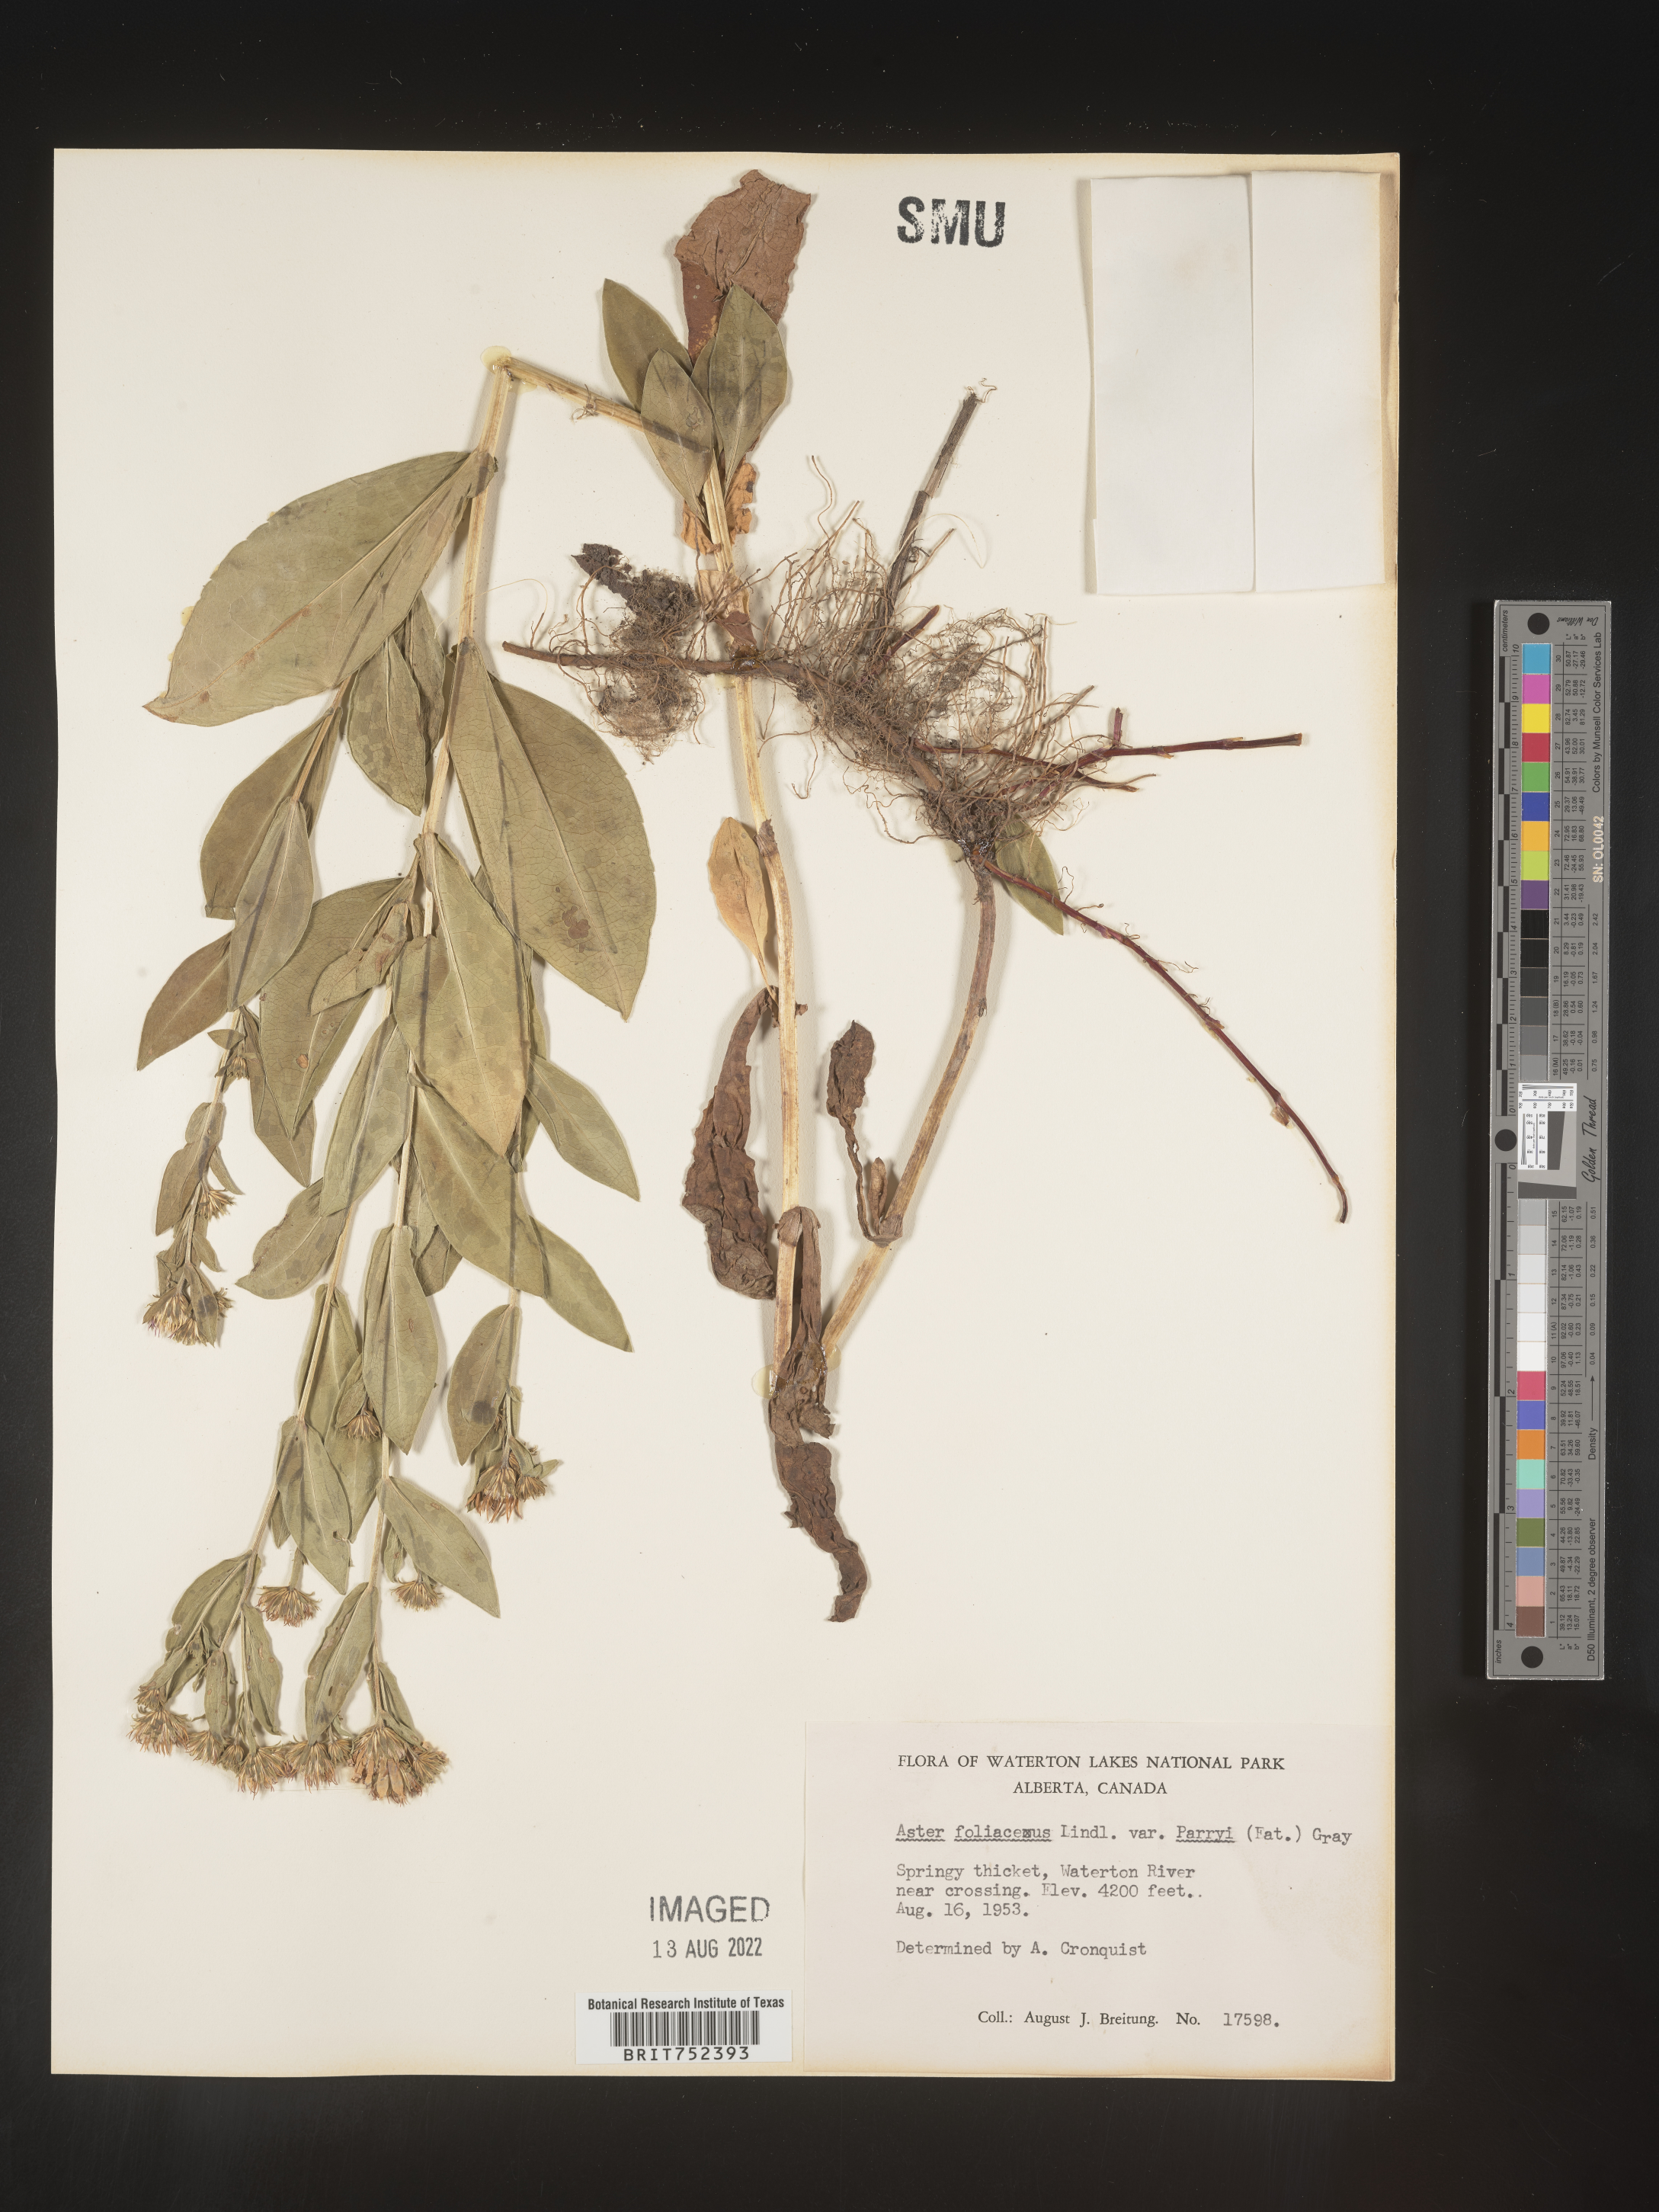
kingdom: Plantae
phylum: Tracheophyta
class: Magnoliopsida
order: Asterales
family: Asteraceae
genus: Symphyotrichum
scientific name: Symphyotrichum foliaceum
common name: Leafy aster
